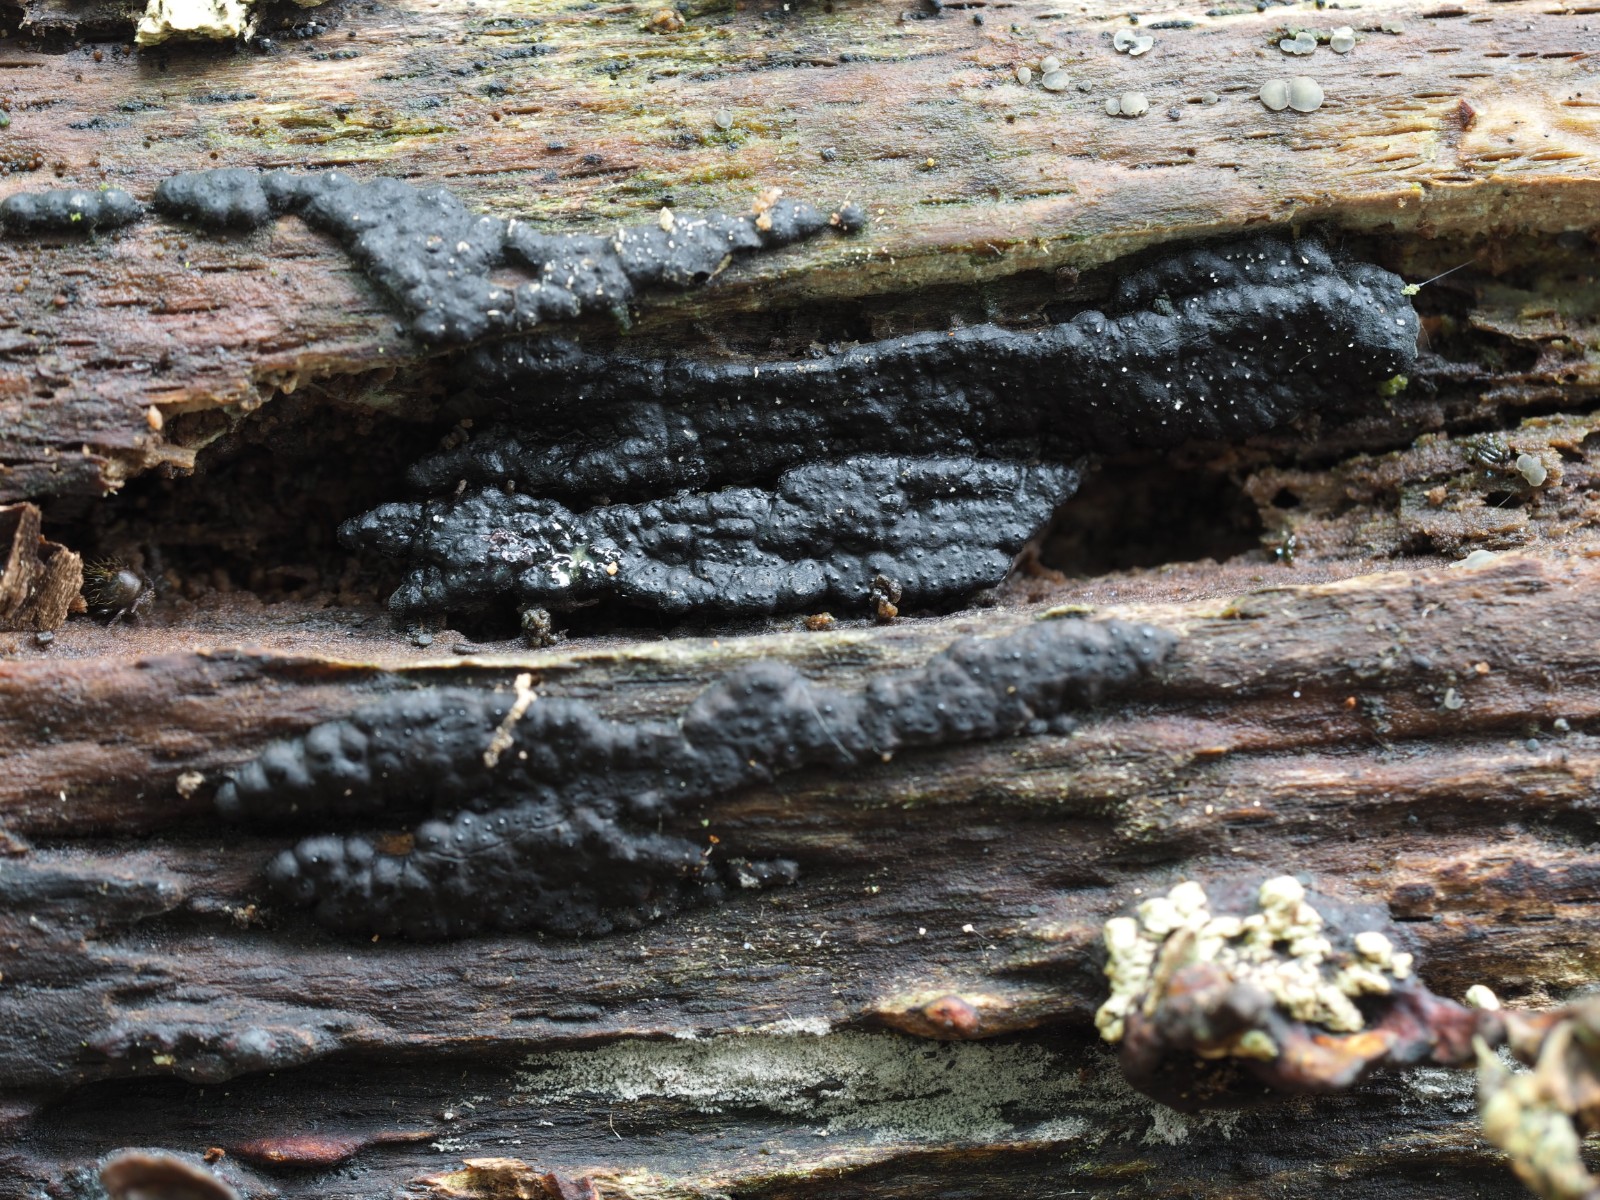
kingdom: Fungi
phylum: Ascomycota
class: Sordariomycetes
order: Xylariales
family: Xylariaceae
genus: Nemania
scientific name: Nemania serpens
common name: almindelig kuldyne
